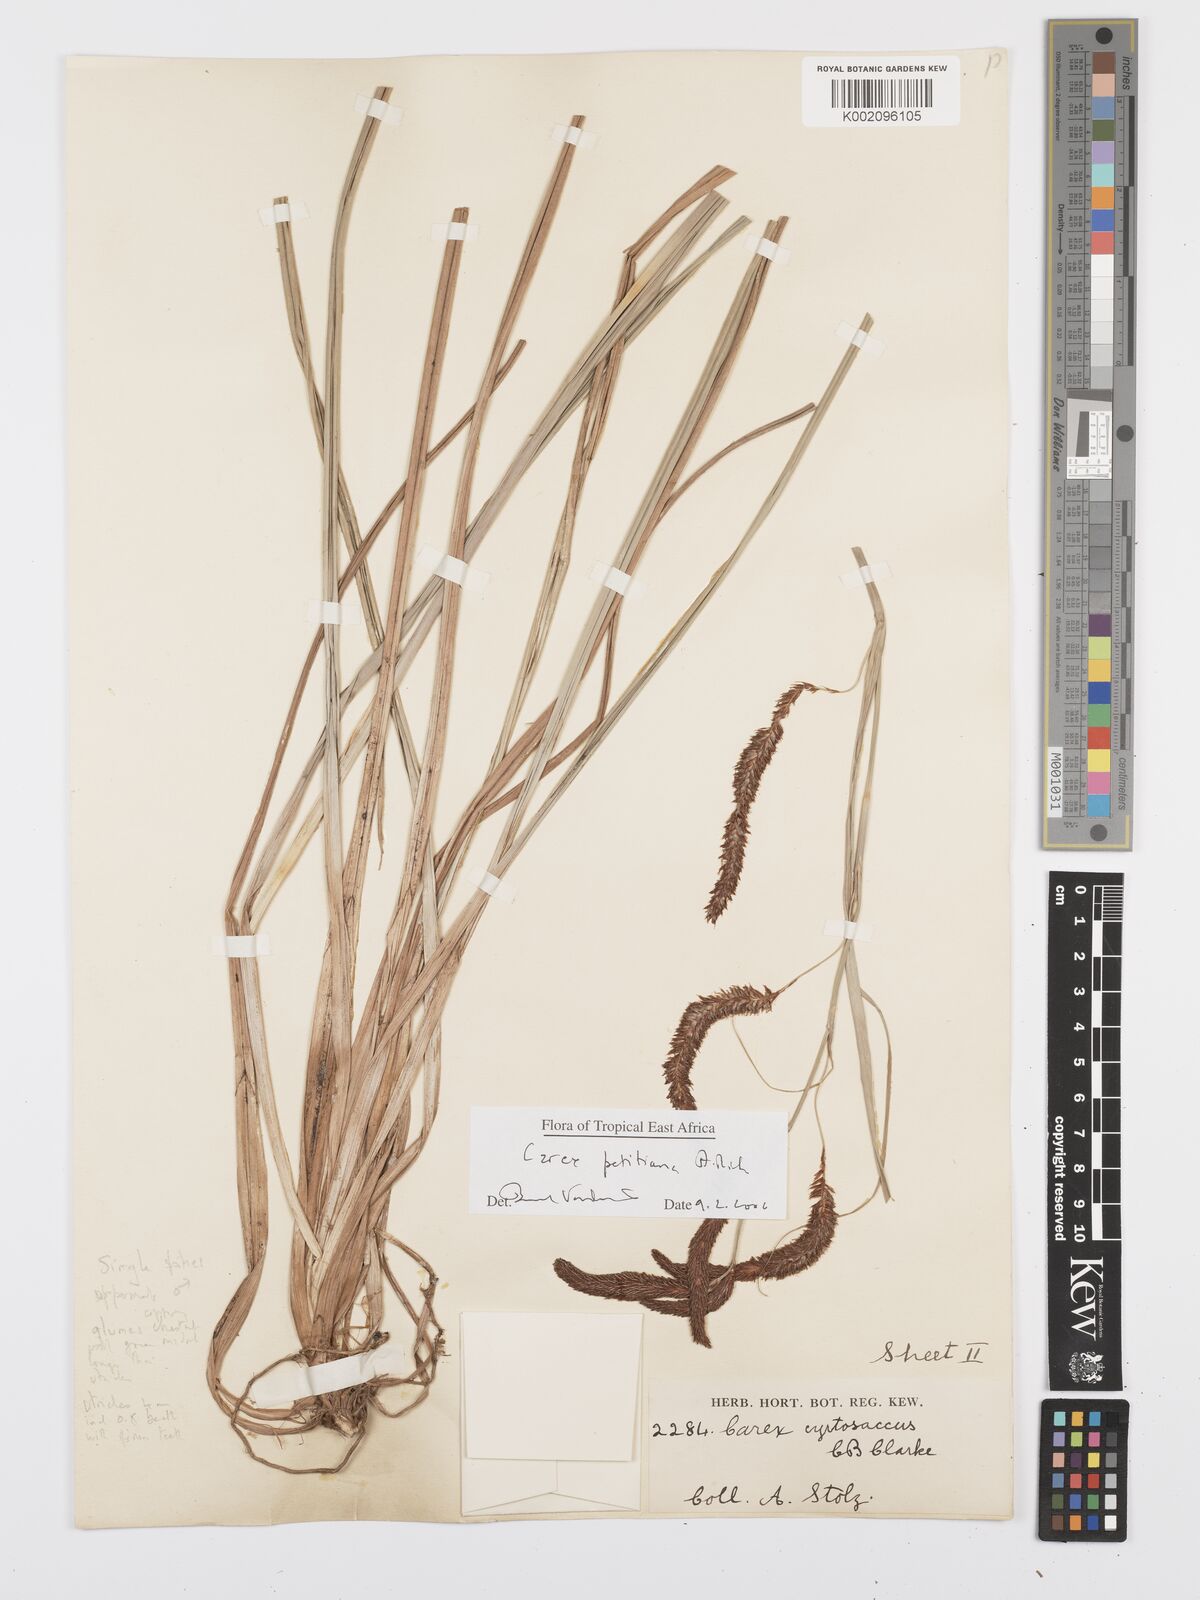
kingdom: Plantae
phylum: Tracheophyta
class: Liliopsida
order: Poales
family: Cyperaceae
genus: Carex
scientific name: Carex petitiana
